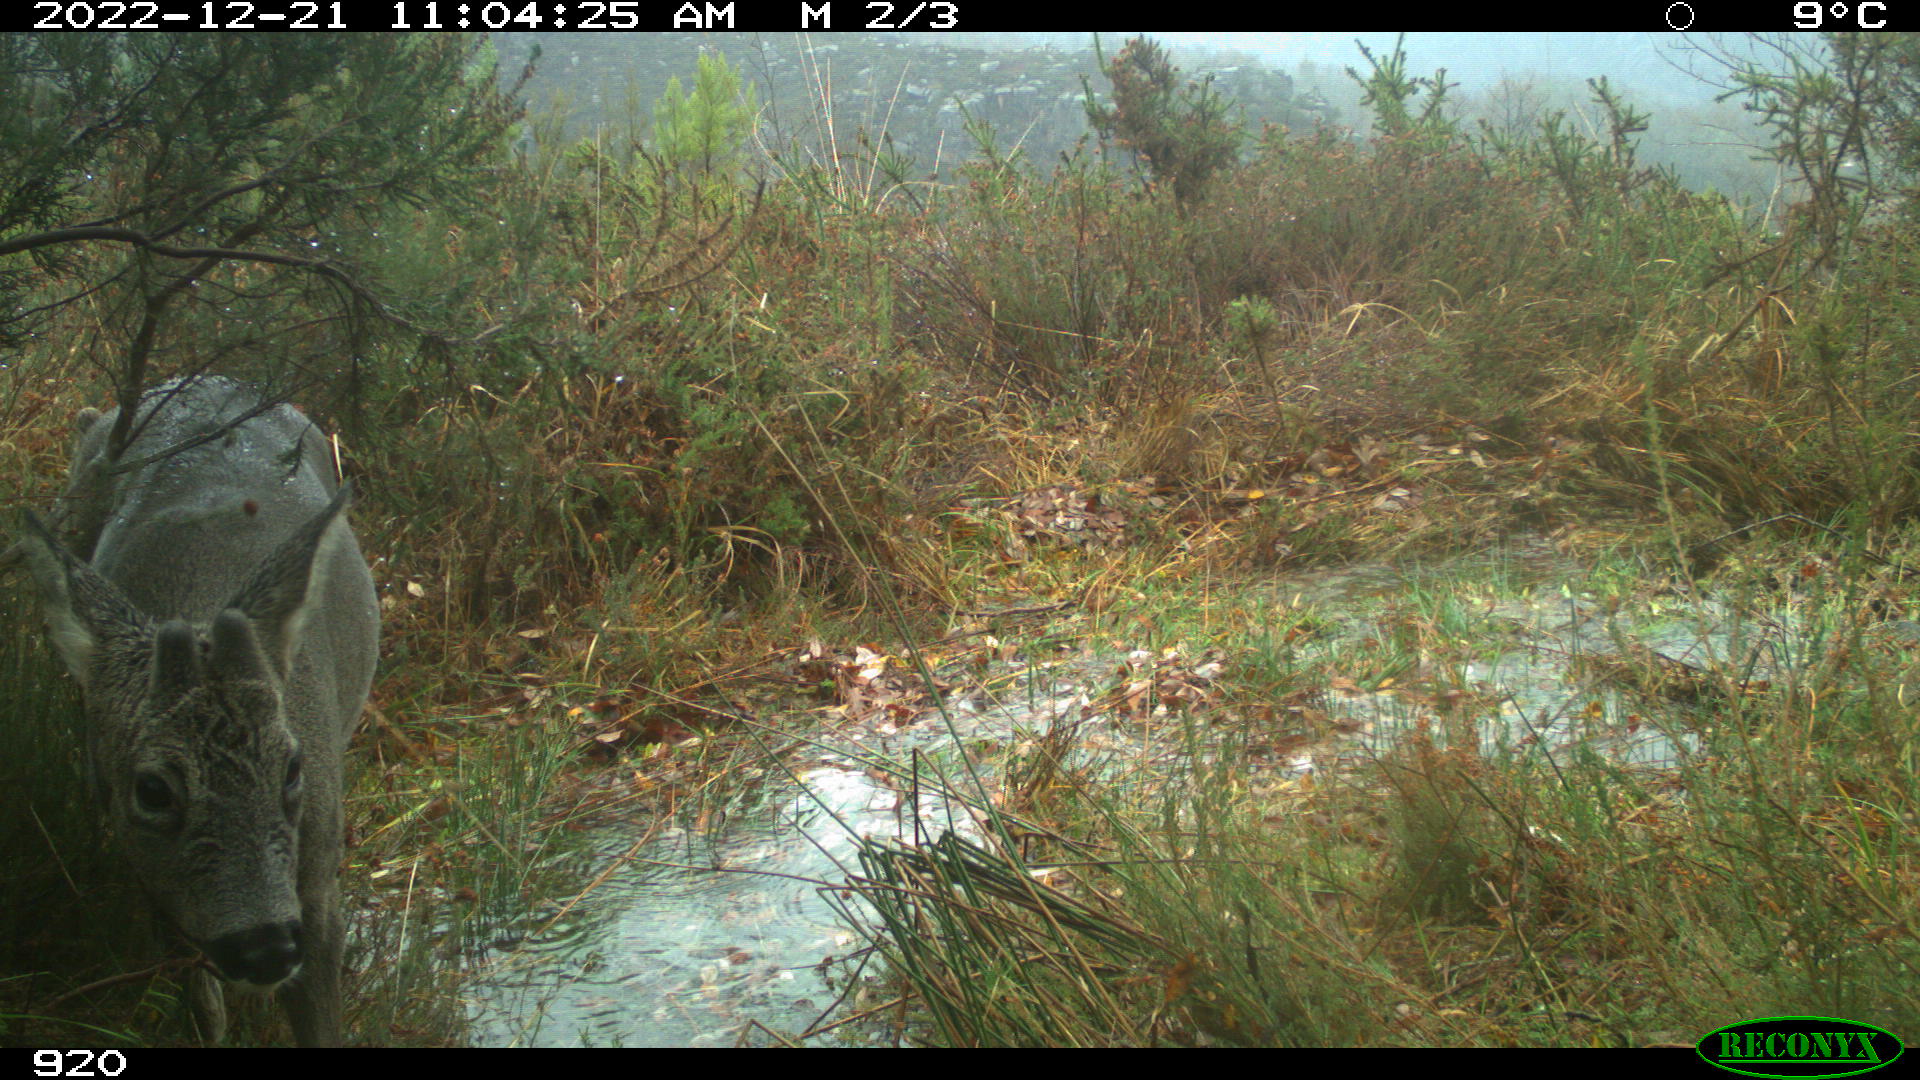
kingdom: Animalia
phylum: Chordata
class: Mammalia
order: Artiodactyla
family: Cervidae
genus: Capreolus
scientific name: Capreolus capreolus
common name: Western roe deer
